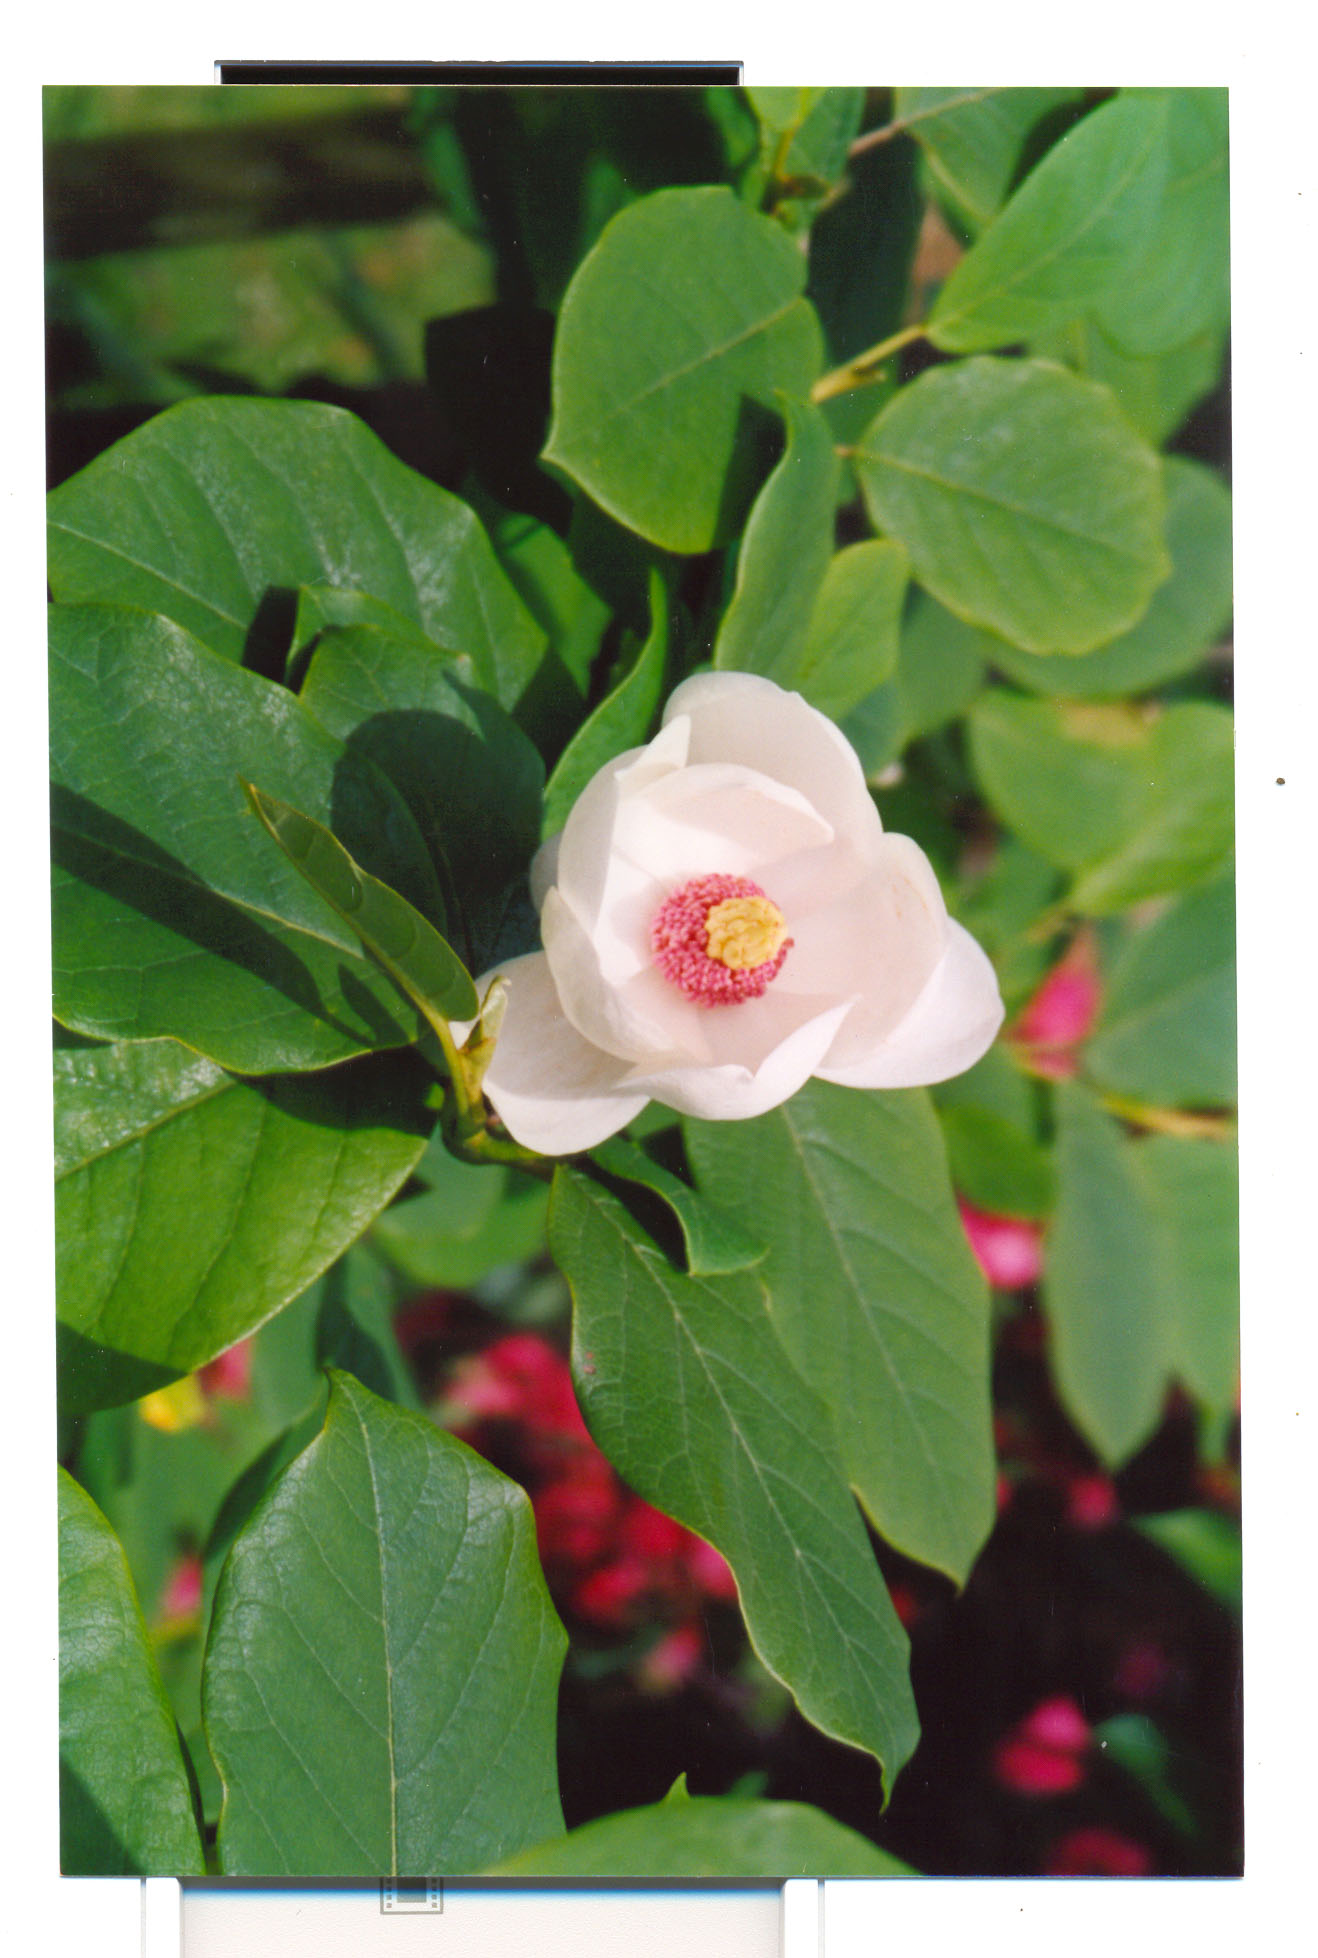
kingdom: Plantae
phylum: Tracheophyta
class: Magnoliopsida
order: Magnoliales
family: Magnoliaceae
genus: Magnolia
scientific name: Magnolia sieboldii
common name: Oyama magnolia
